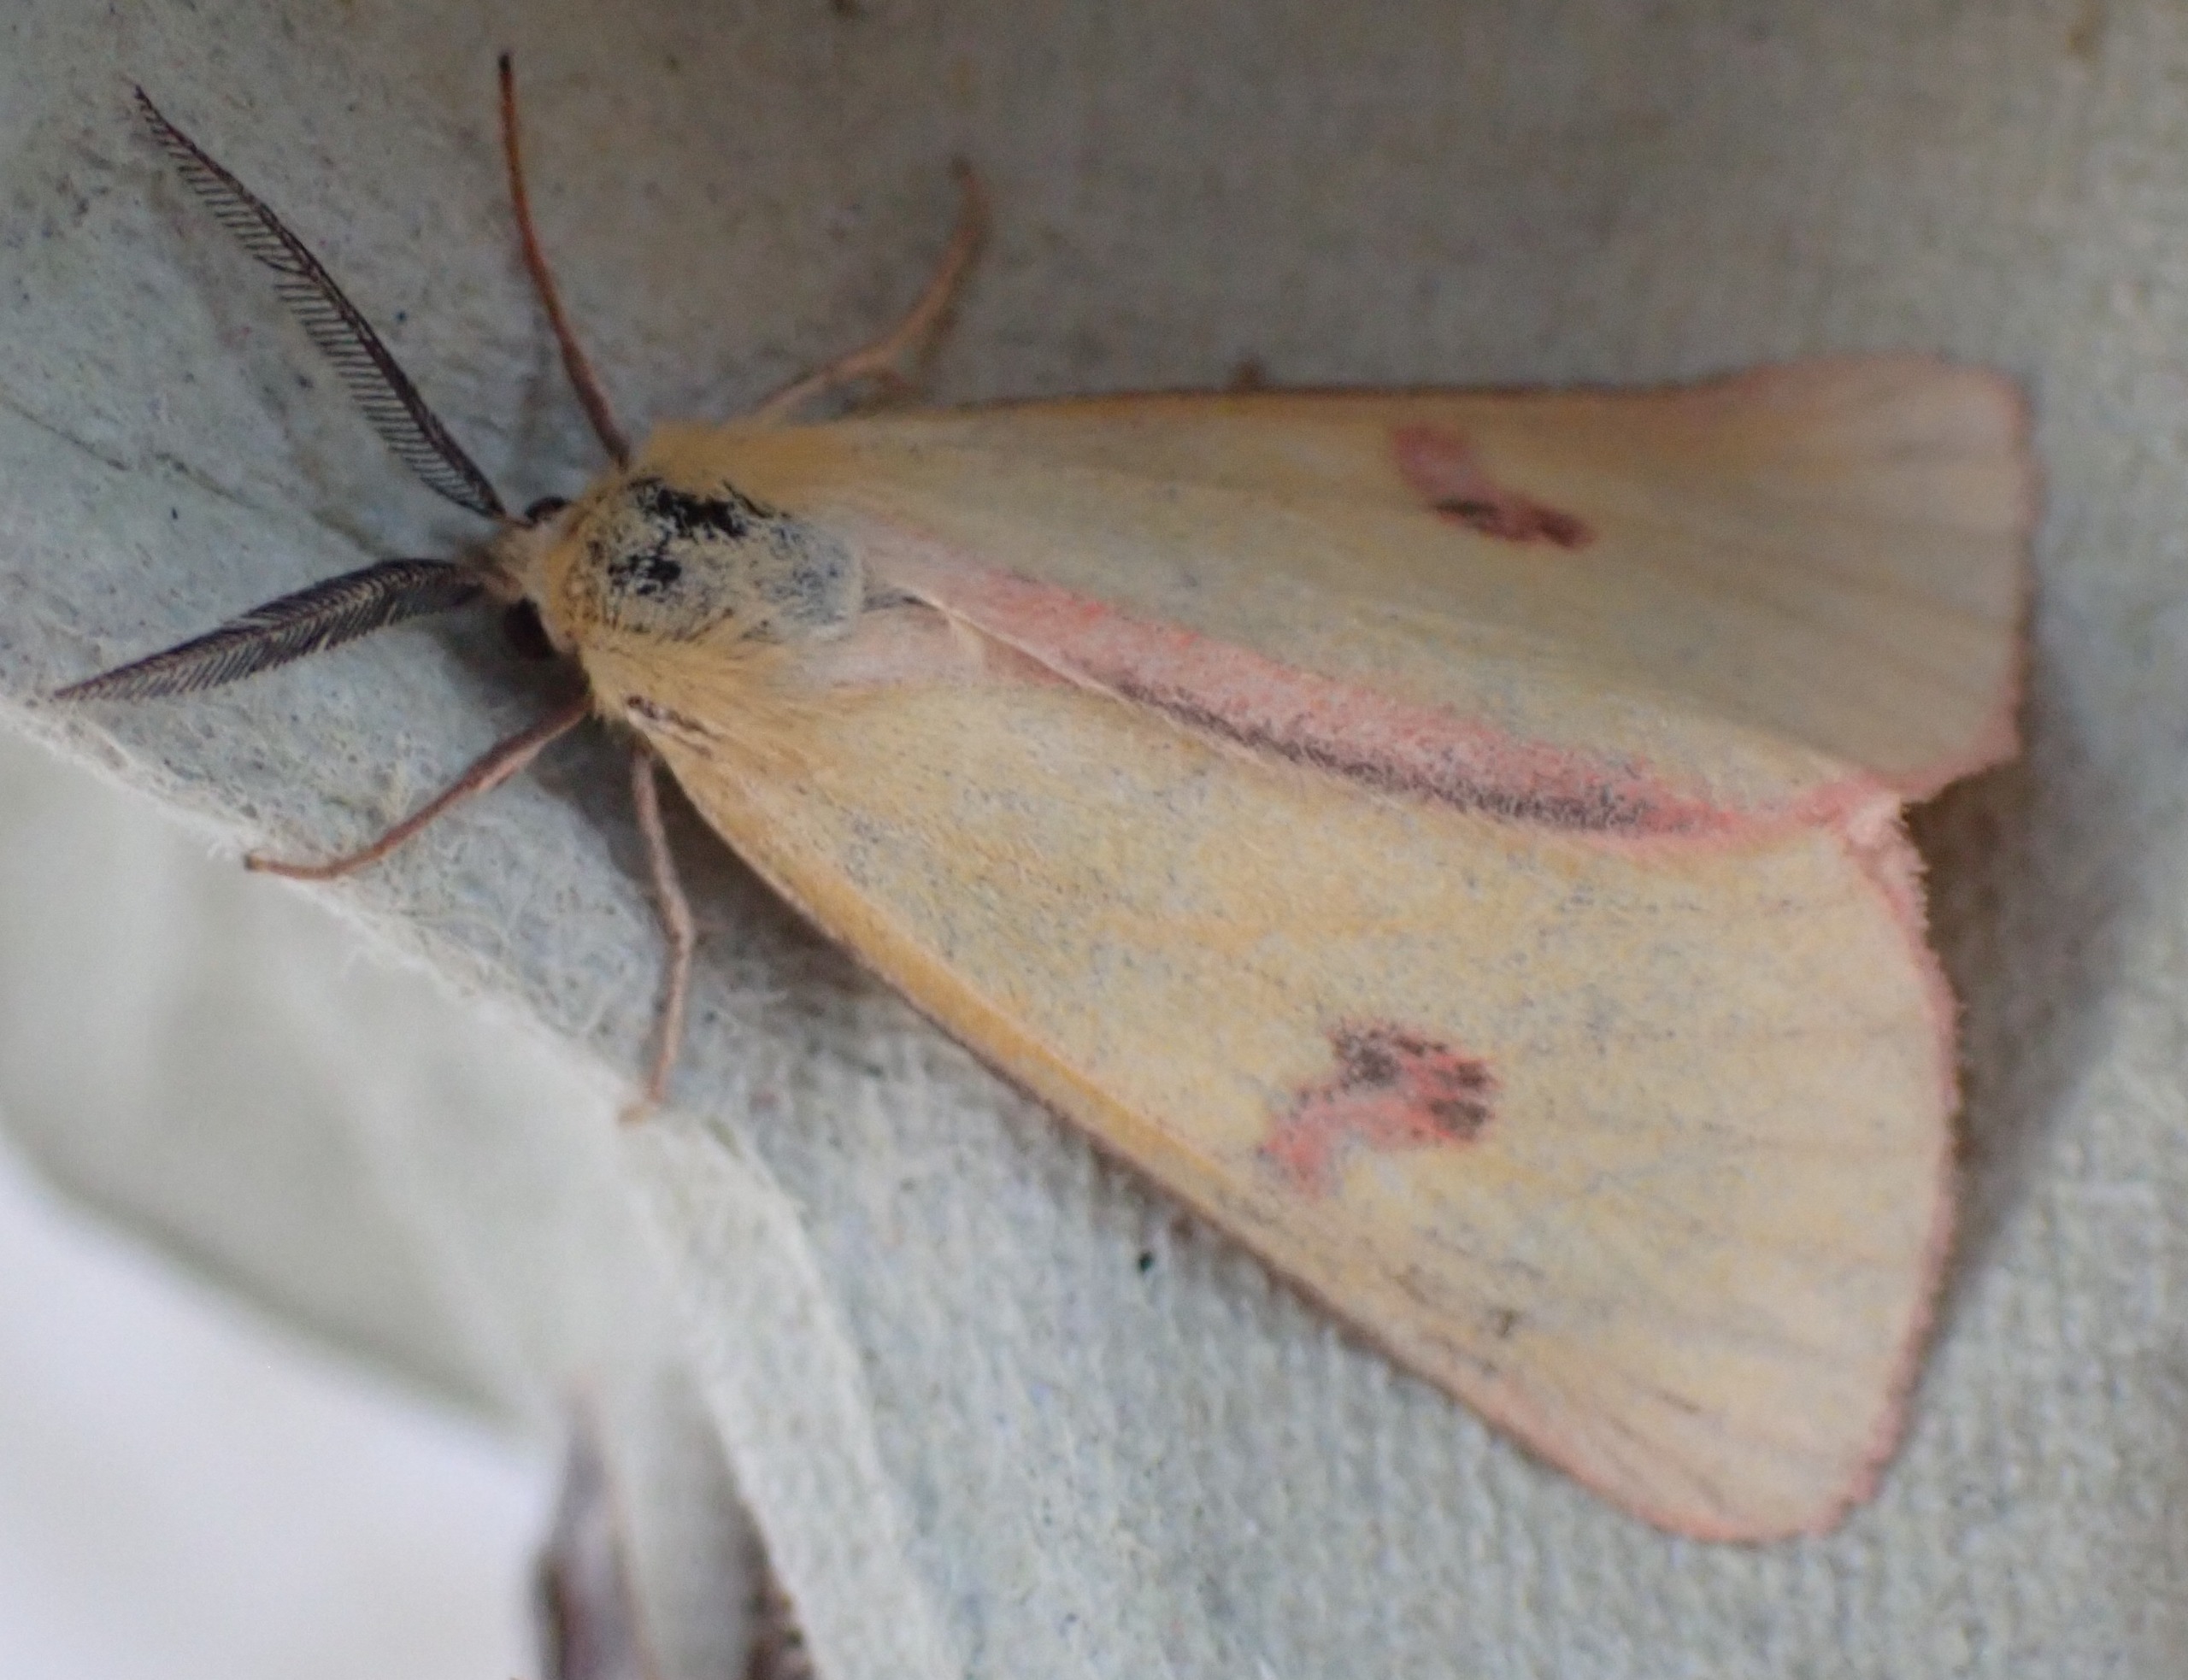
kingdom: Animalia
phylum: Arthropoda
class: Insecta
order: Lepidoptera
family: Erebidae
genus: Diacrisia
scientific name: Diacrisia sannio
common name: Rødfrynset bjørn
